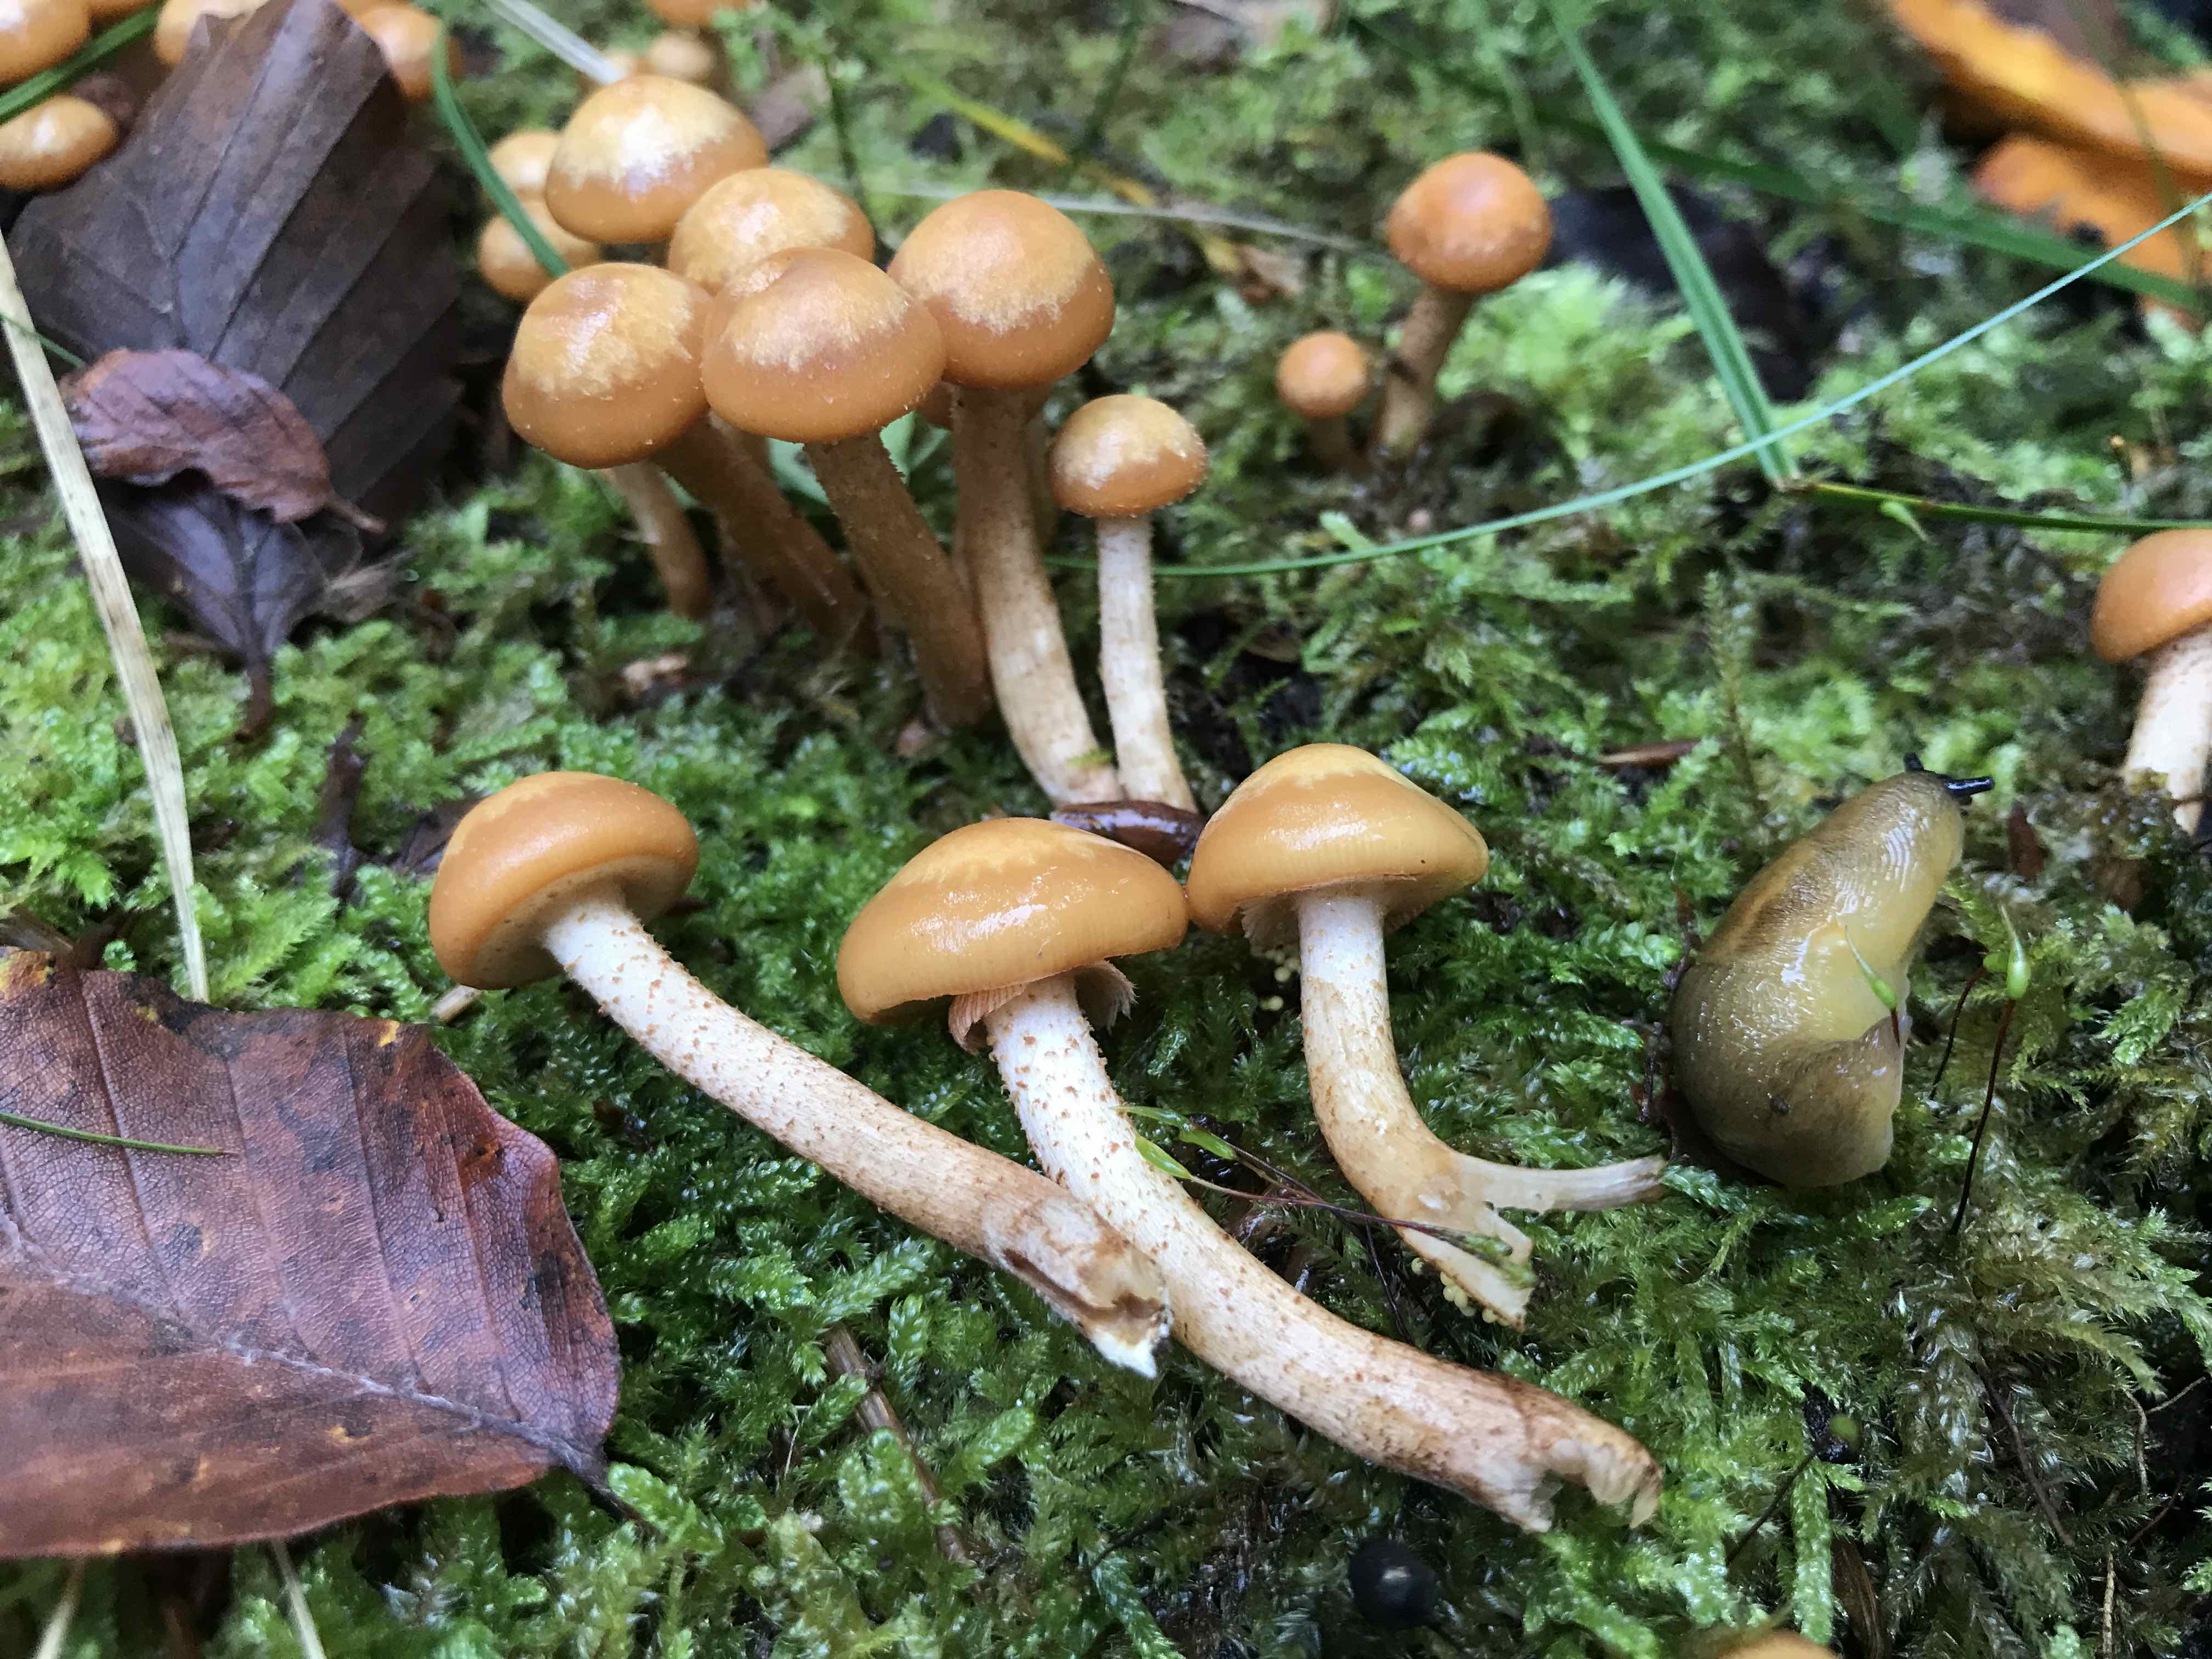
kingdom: Fungi
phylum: Basidiomycota
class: Agaricomycetes
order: Agaricales
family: Strophariaceae
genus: Kuehneromyces
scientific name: Kuehneromyces mutabilis
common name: foranderlig skælhat
